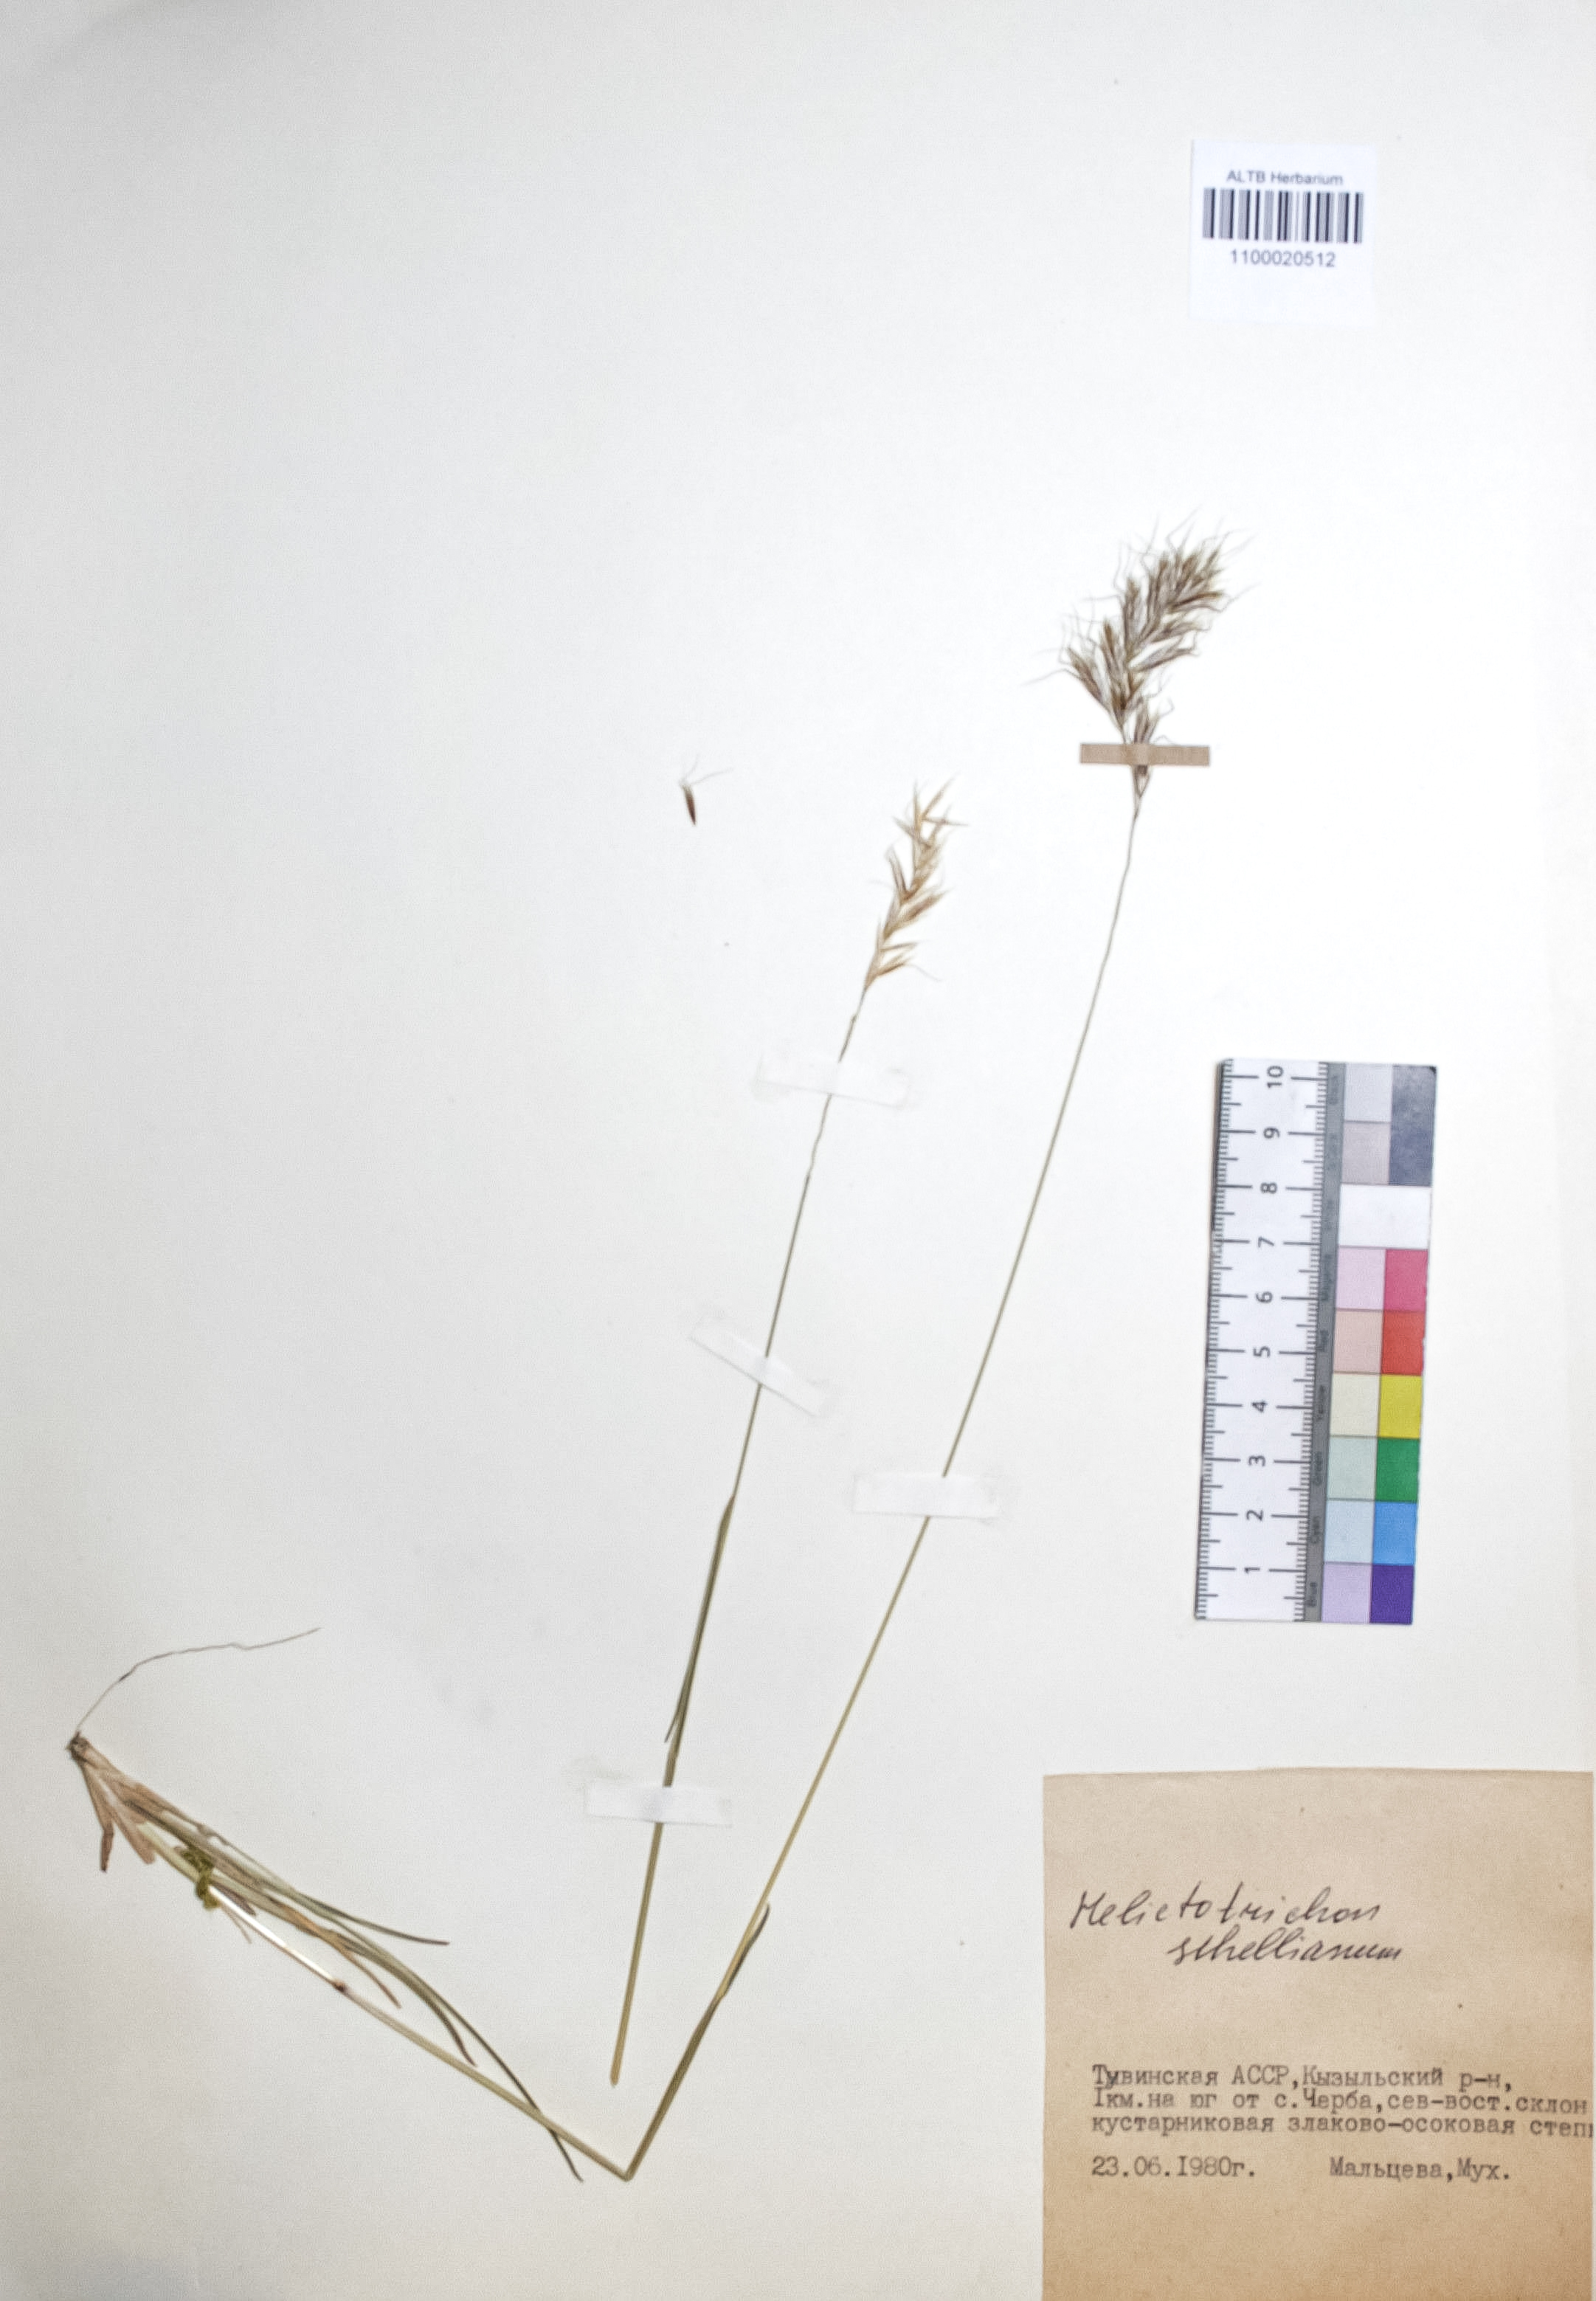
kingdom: Plantae
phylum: Tracheophyta
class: Liliopsida
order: Poales
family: Poaceae
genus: Helictochloa
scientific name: Helictochloa hookeri
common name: Hooker's alpine oatgrass
